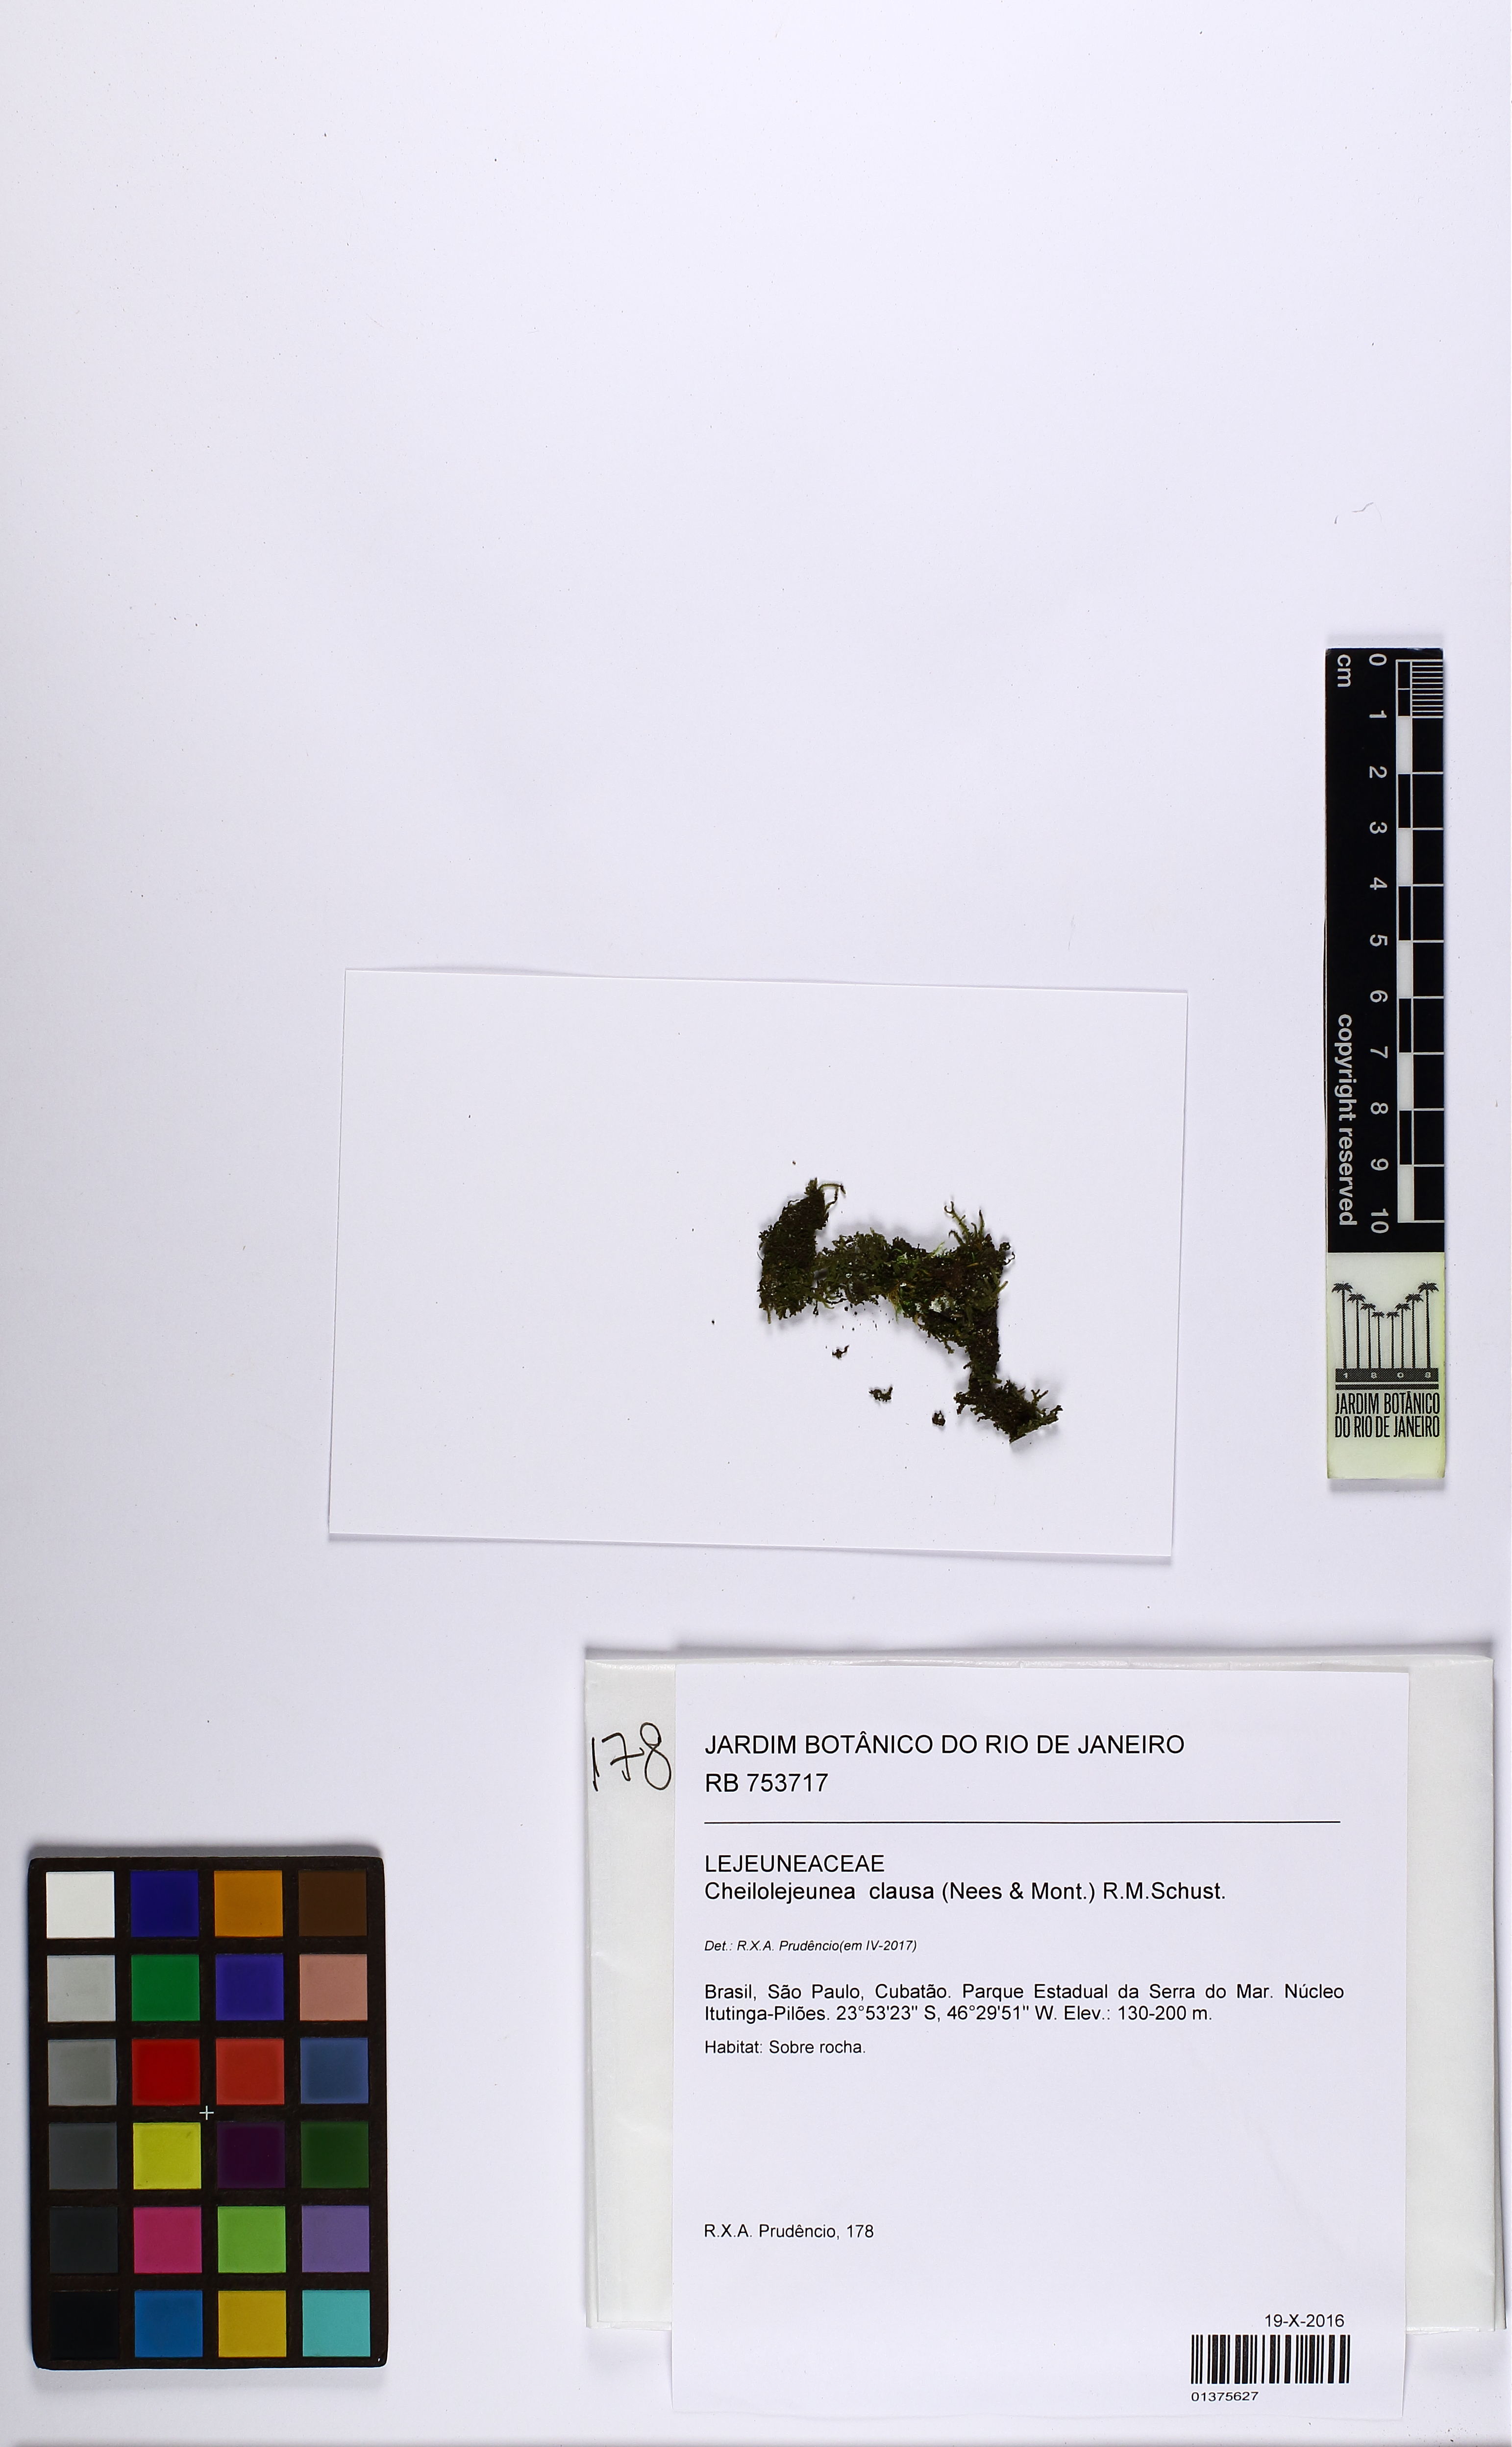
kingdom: Plantae
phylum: Marchantiophyta
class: Jungermanniopsida
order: Porellales
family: Lejeuneaceae
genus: Cheilolejeunea
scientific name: Cheilolejeunea trifaria
